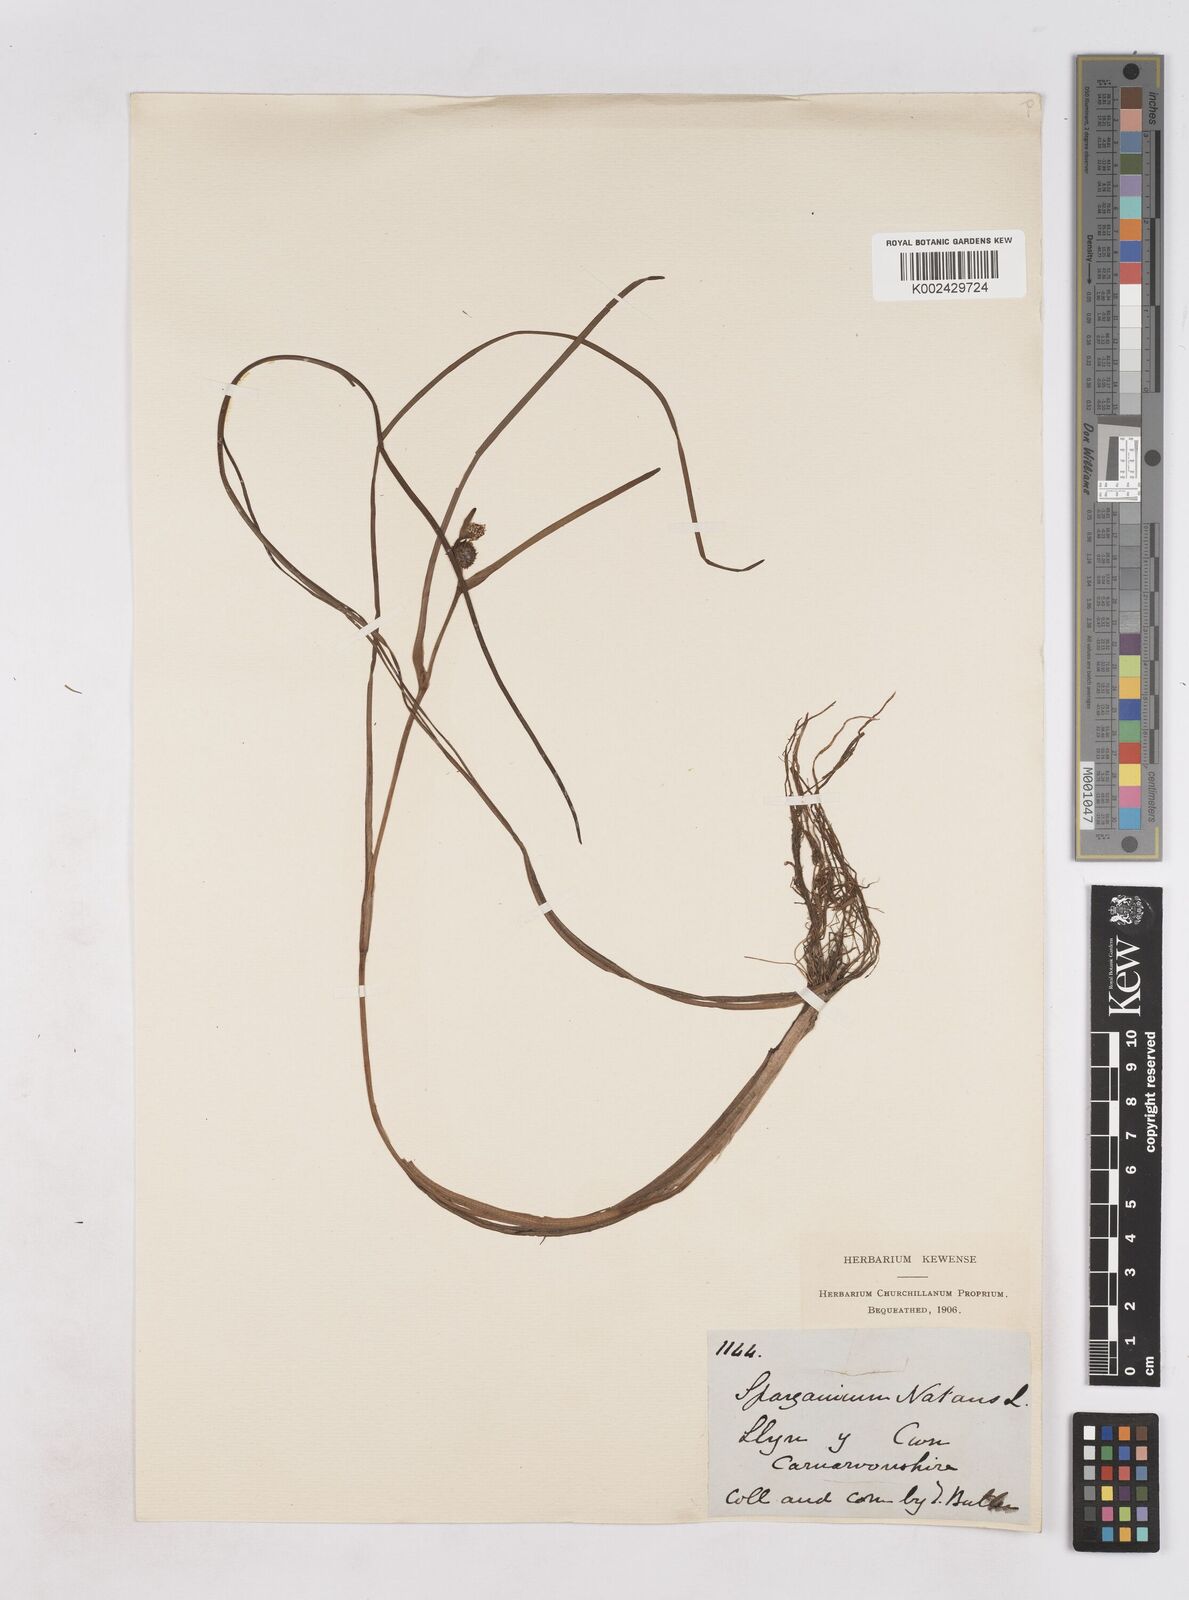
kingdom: Plantae
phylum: Tracheophyta
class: Liliopsida
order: Poales
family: Typhaceae
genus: Sparganium
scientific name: Sparganium angustifolium
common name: Floating bur-reed
